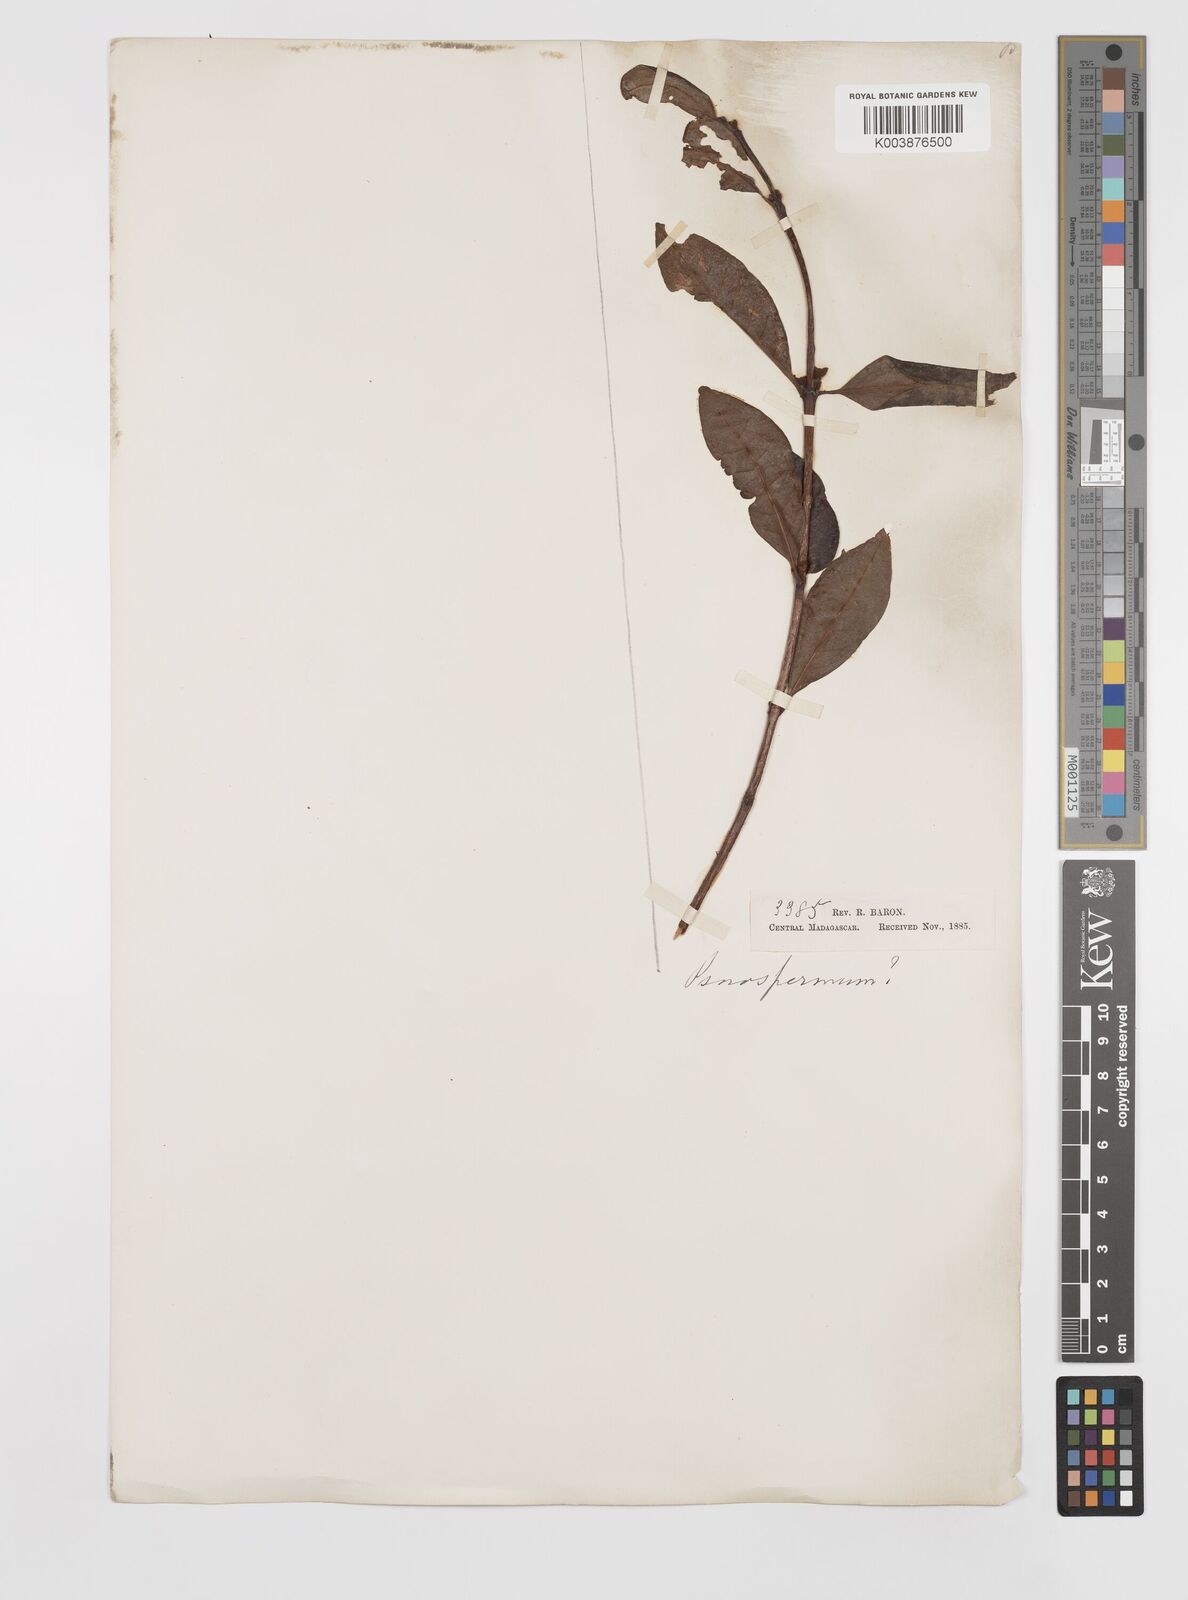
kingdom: Plantae
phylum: Tracheophyta
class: Magnoliopsida
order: Malpighiales
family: Hypericaceae
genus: Psorospermum
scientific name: Psorospermum
